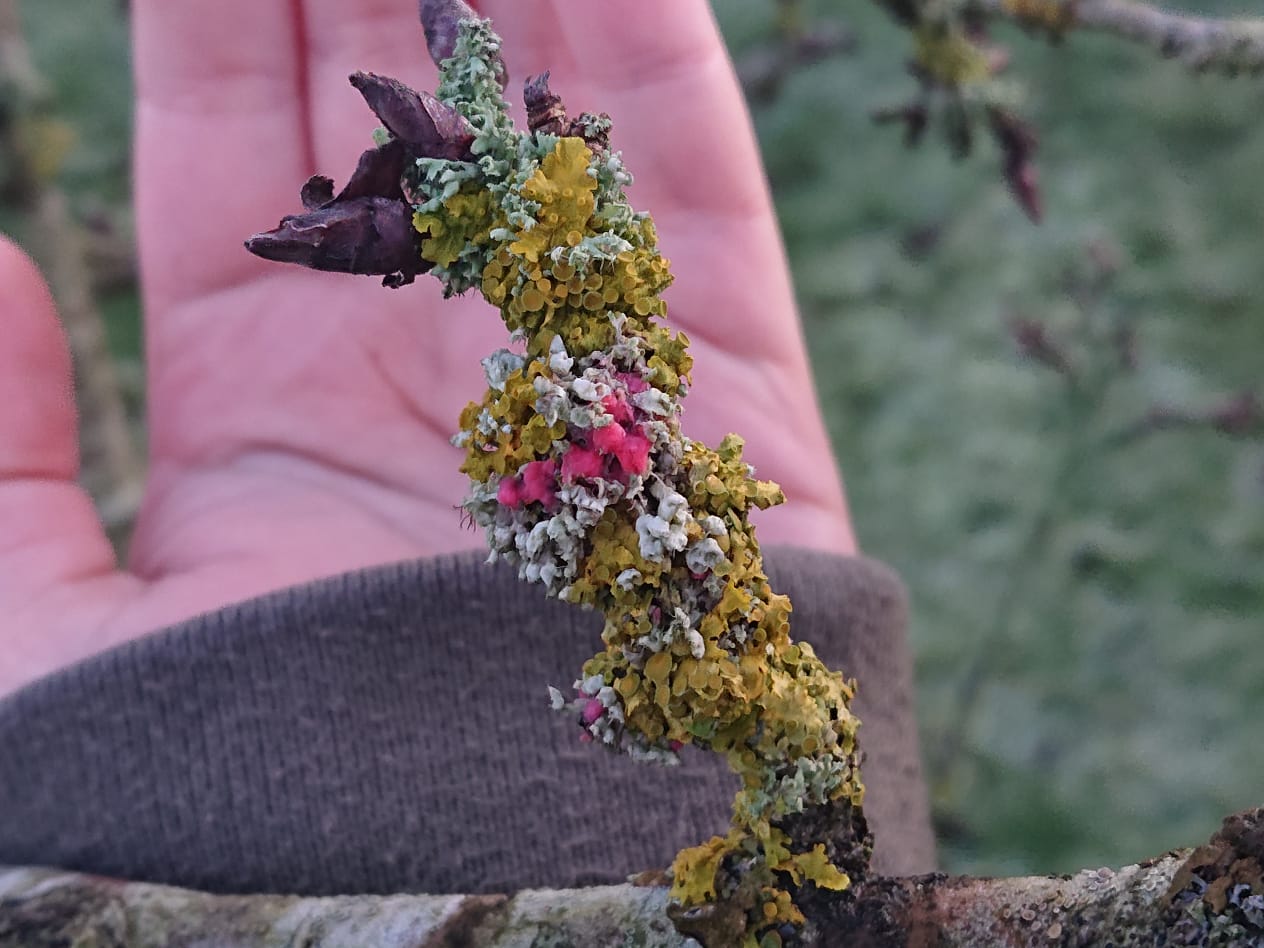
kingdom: Fungi
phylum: Ascomycota
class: Sordariomycetes
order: Hypocreales
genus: Illosporiopsis
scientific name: Illosporiopsis christiansenii
